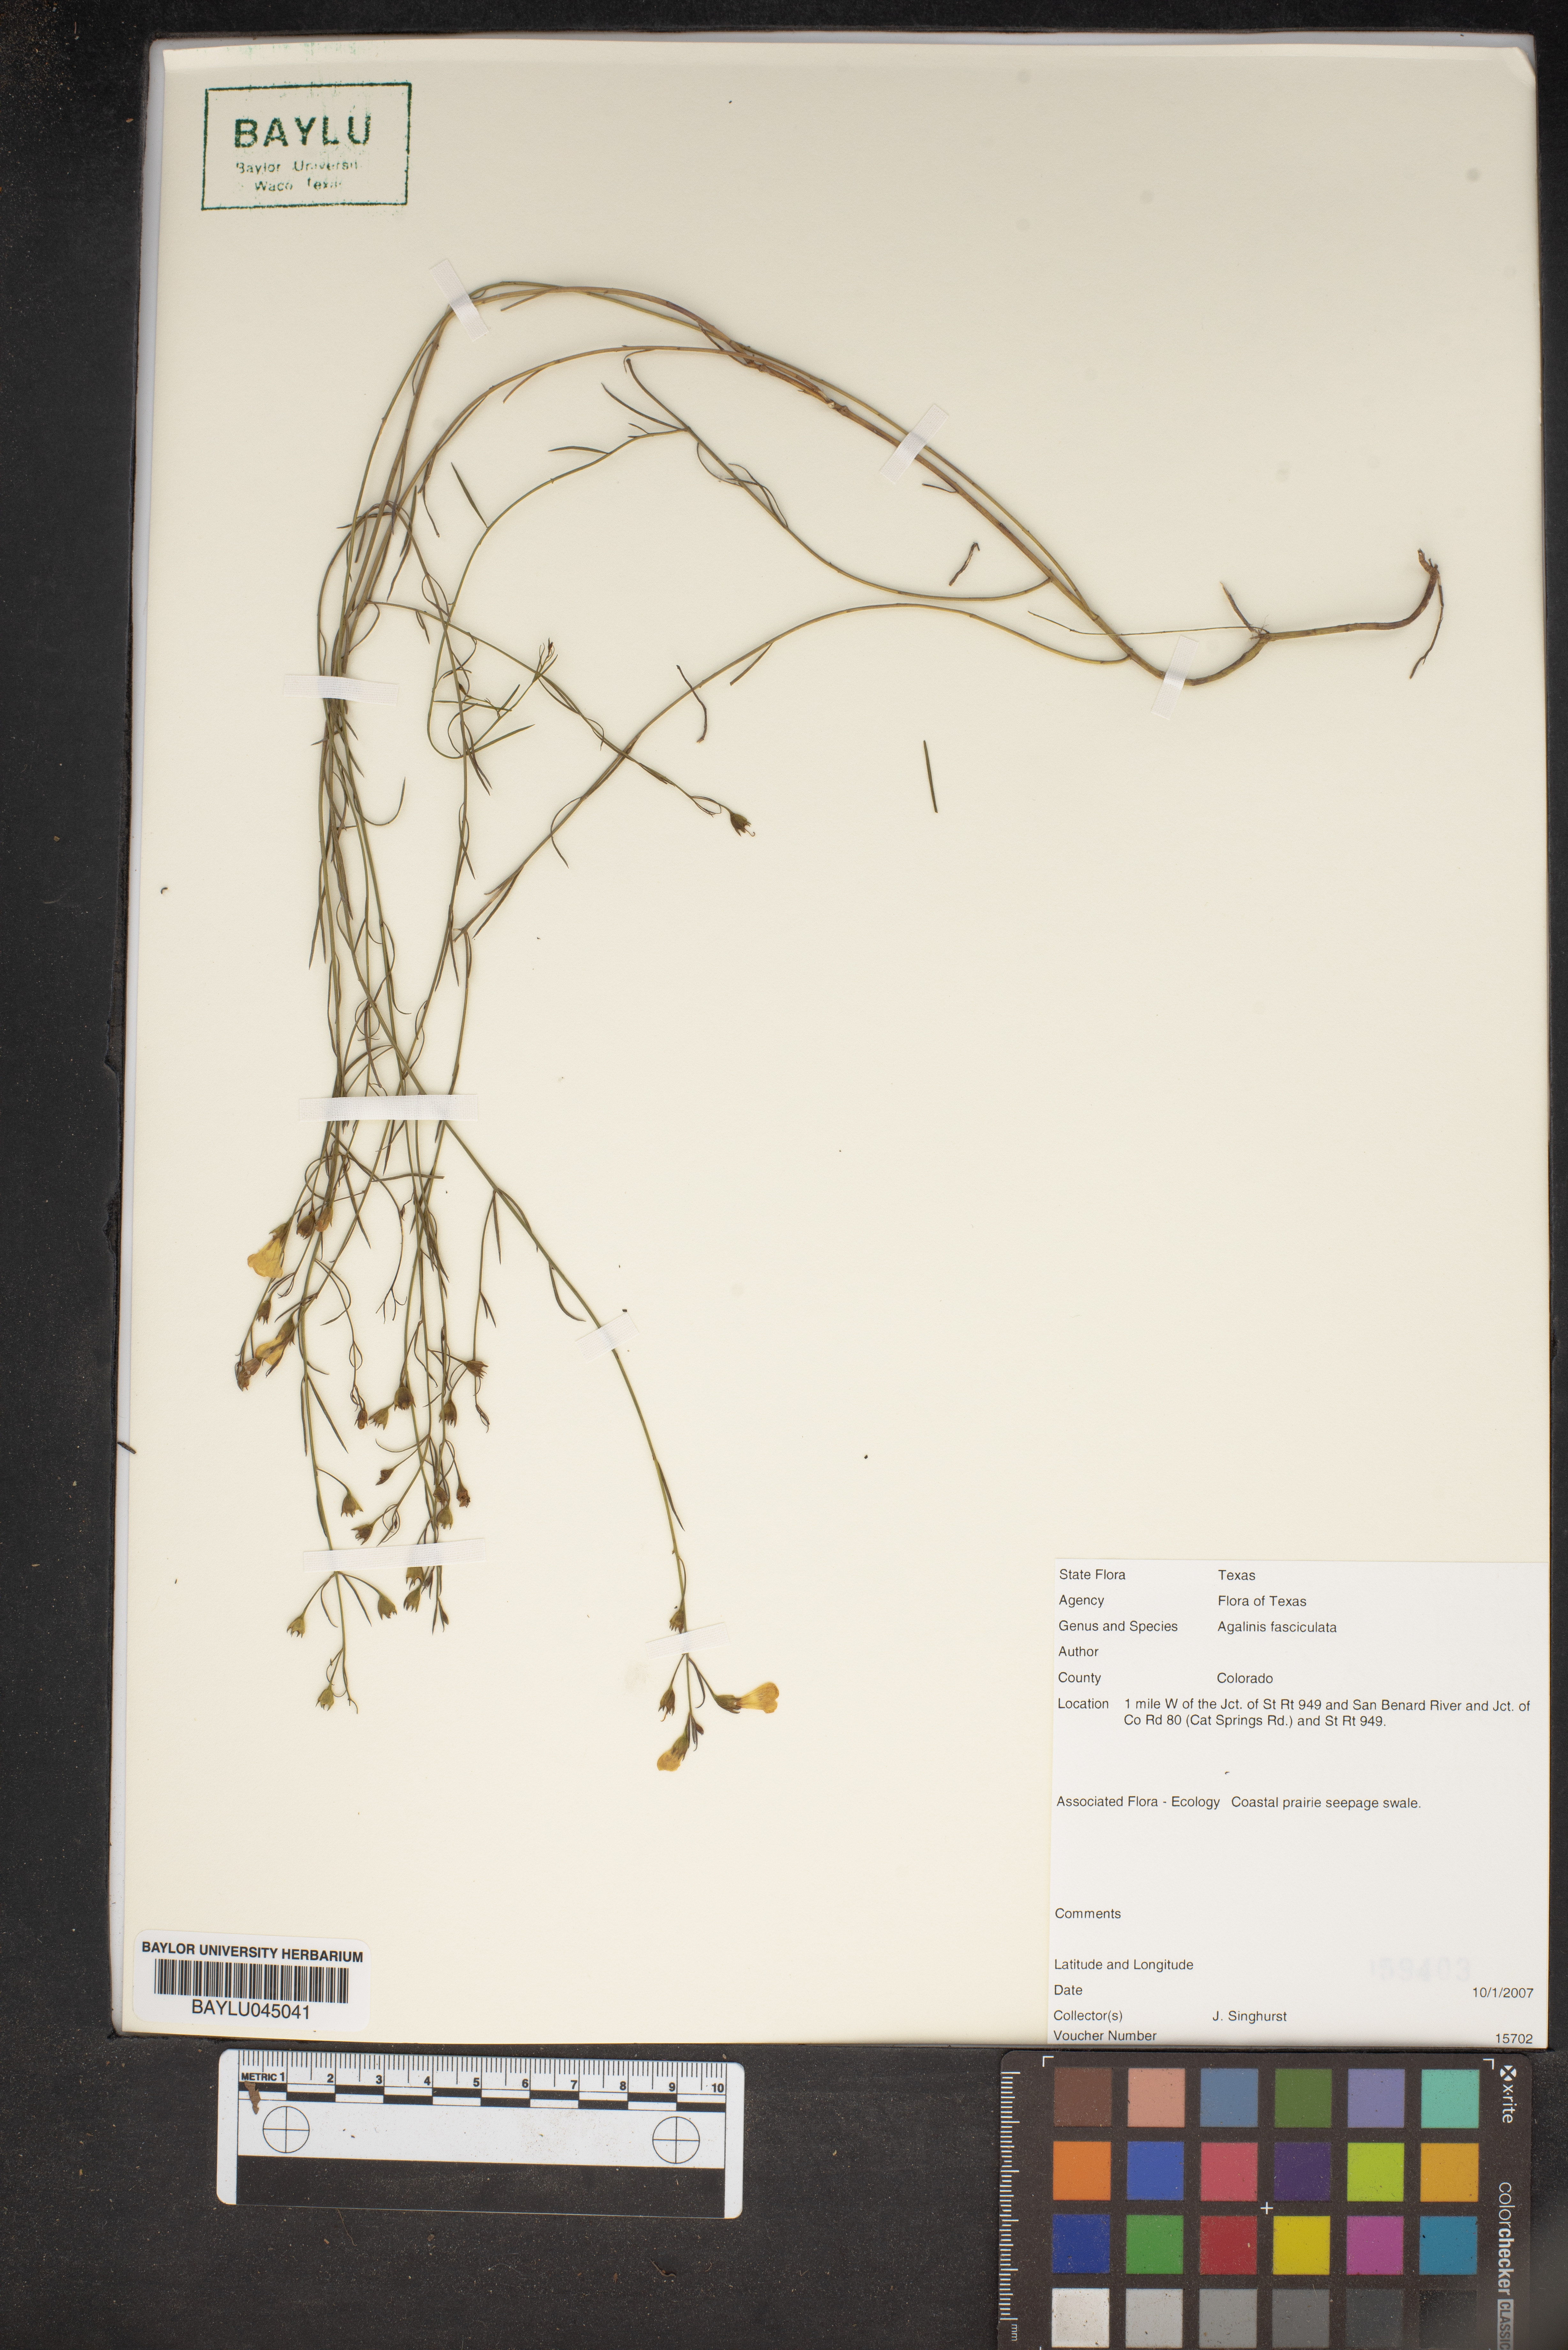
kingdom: Plantae
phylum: Tracheophyta
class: Magnoliopsida
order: Lamiales
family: Orobanchaceae
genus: Agalinis
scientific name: Agalinis fasciculata
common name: Beach false foxglove
